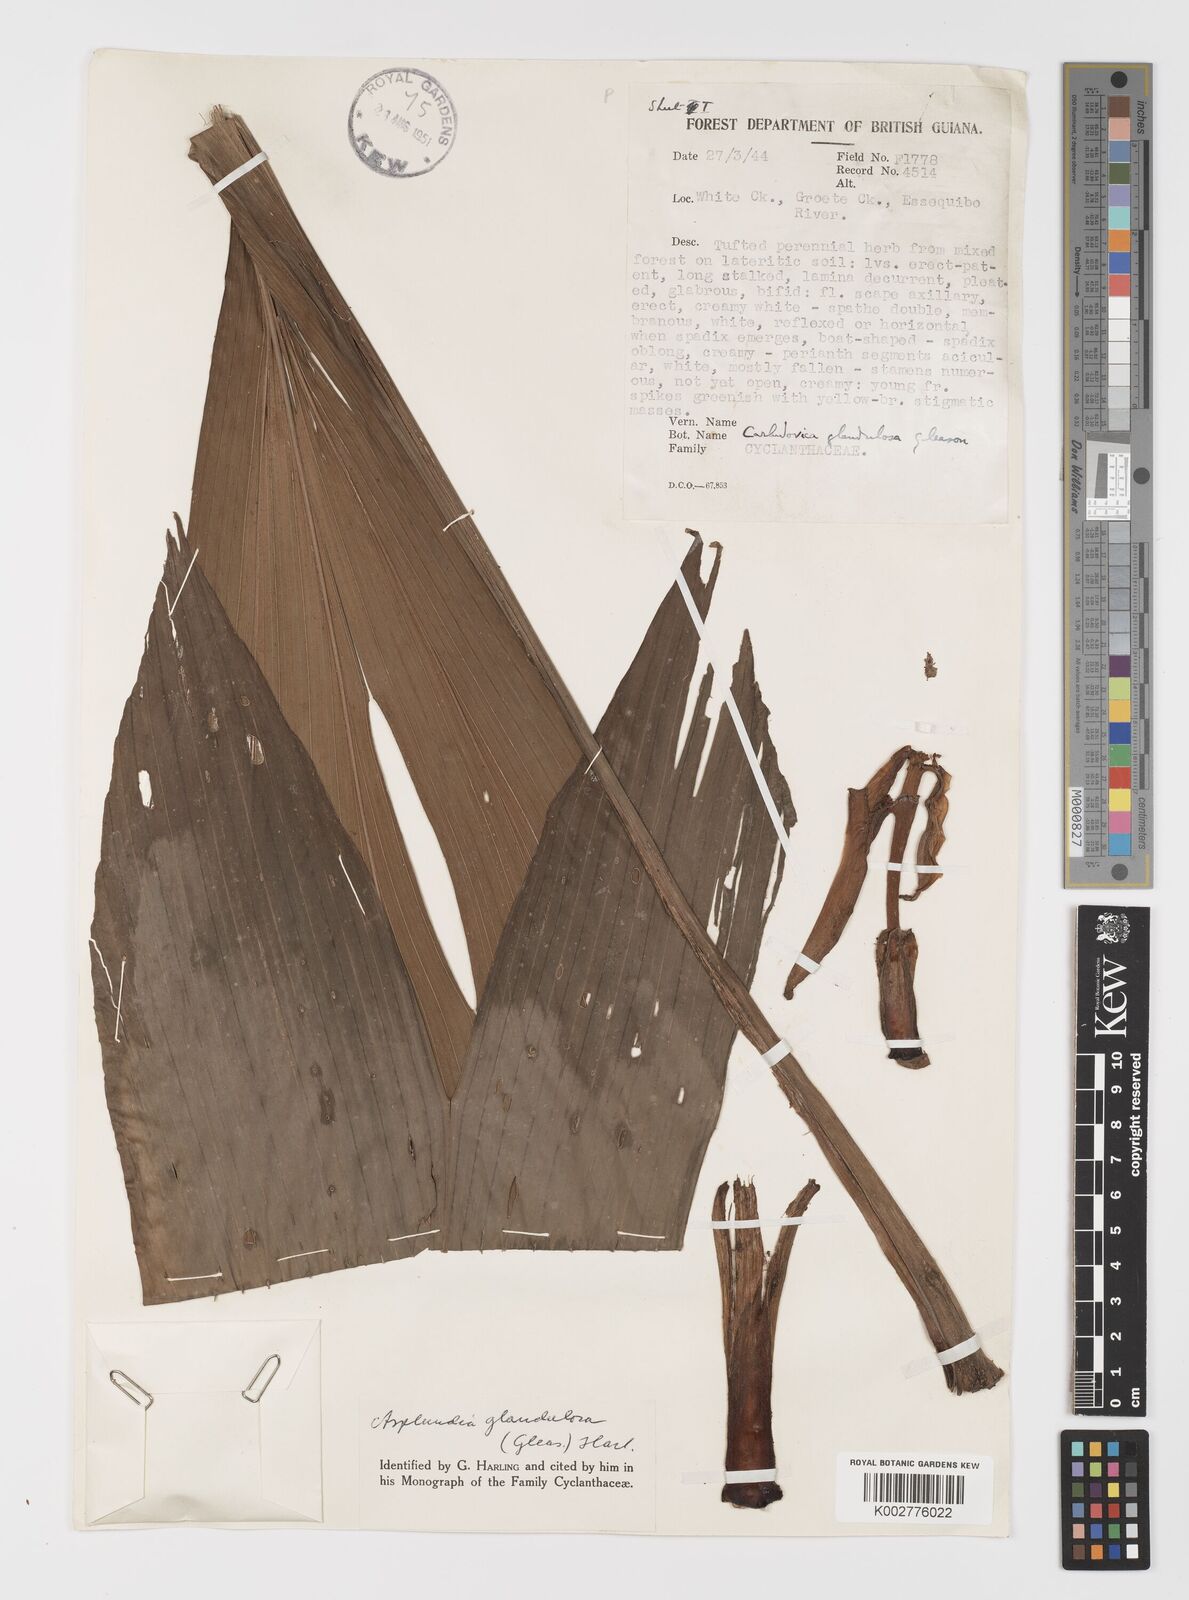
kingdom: Plantae
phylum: Tracheophyta
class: Liliopsida
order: Pandanales
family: Cyclanthaceae
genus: Asplundia
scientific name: Asplundia glandulosa
